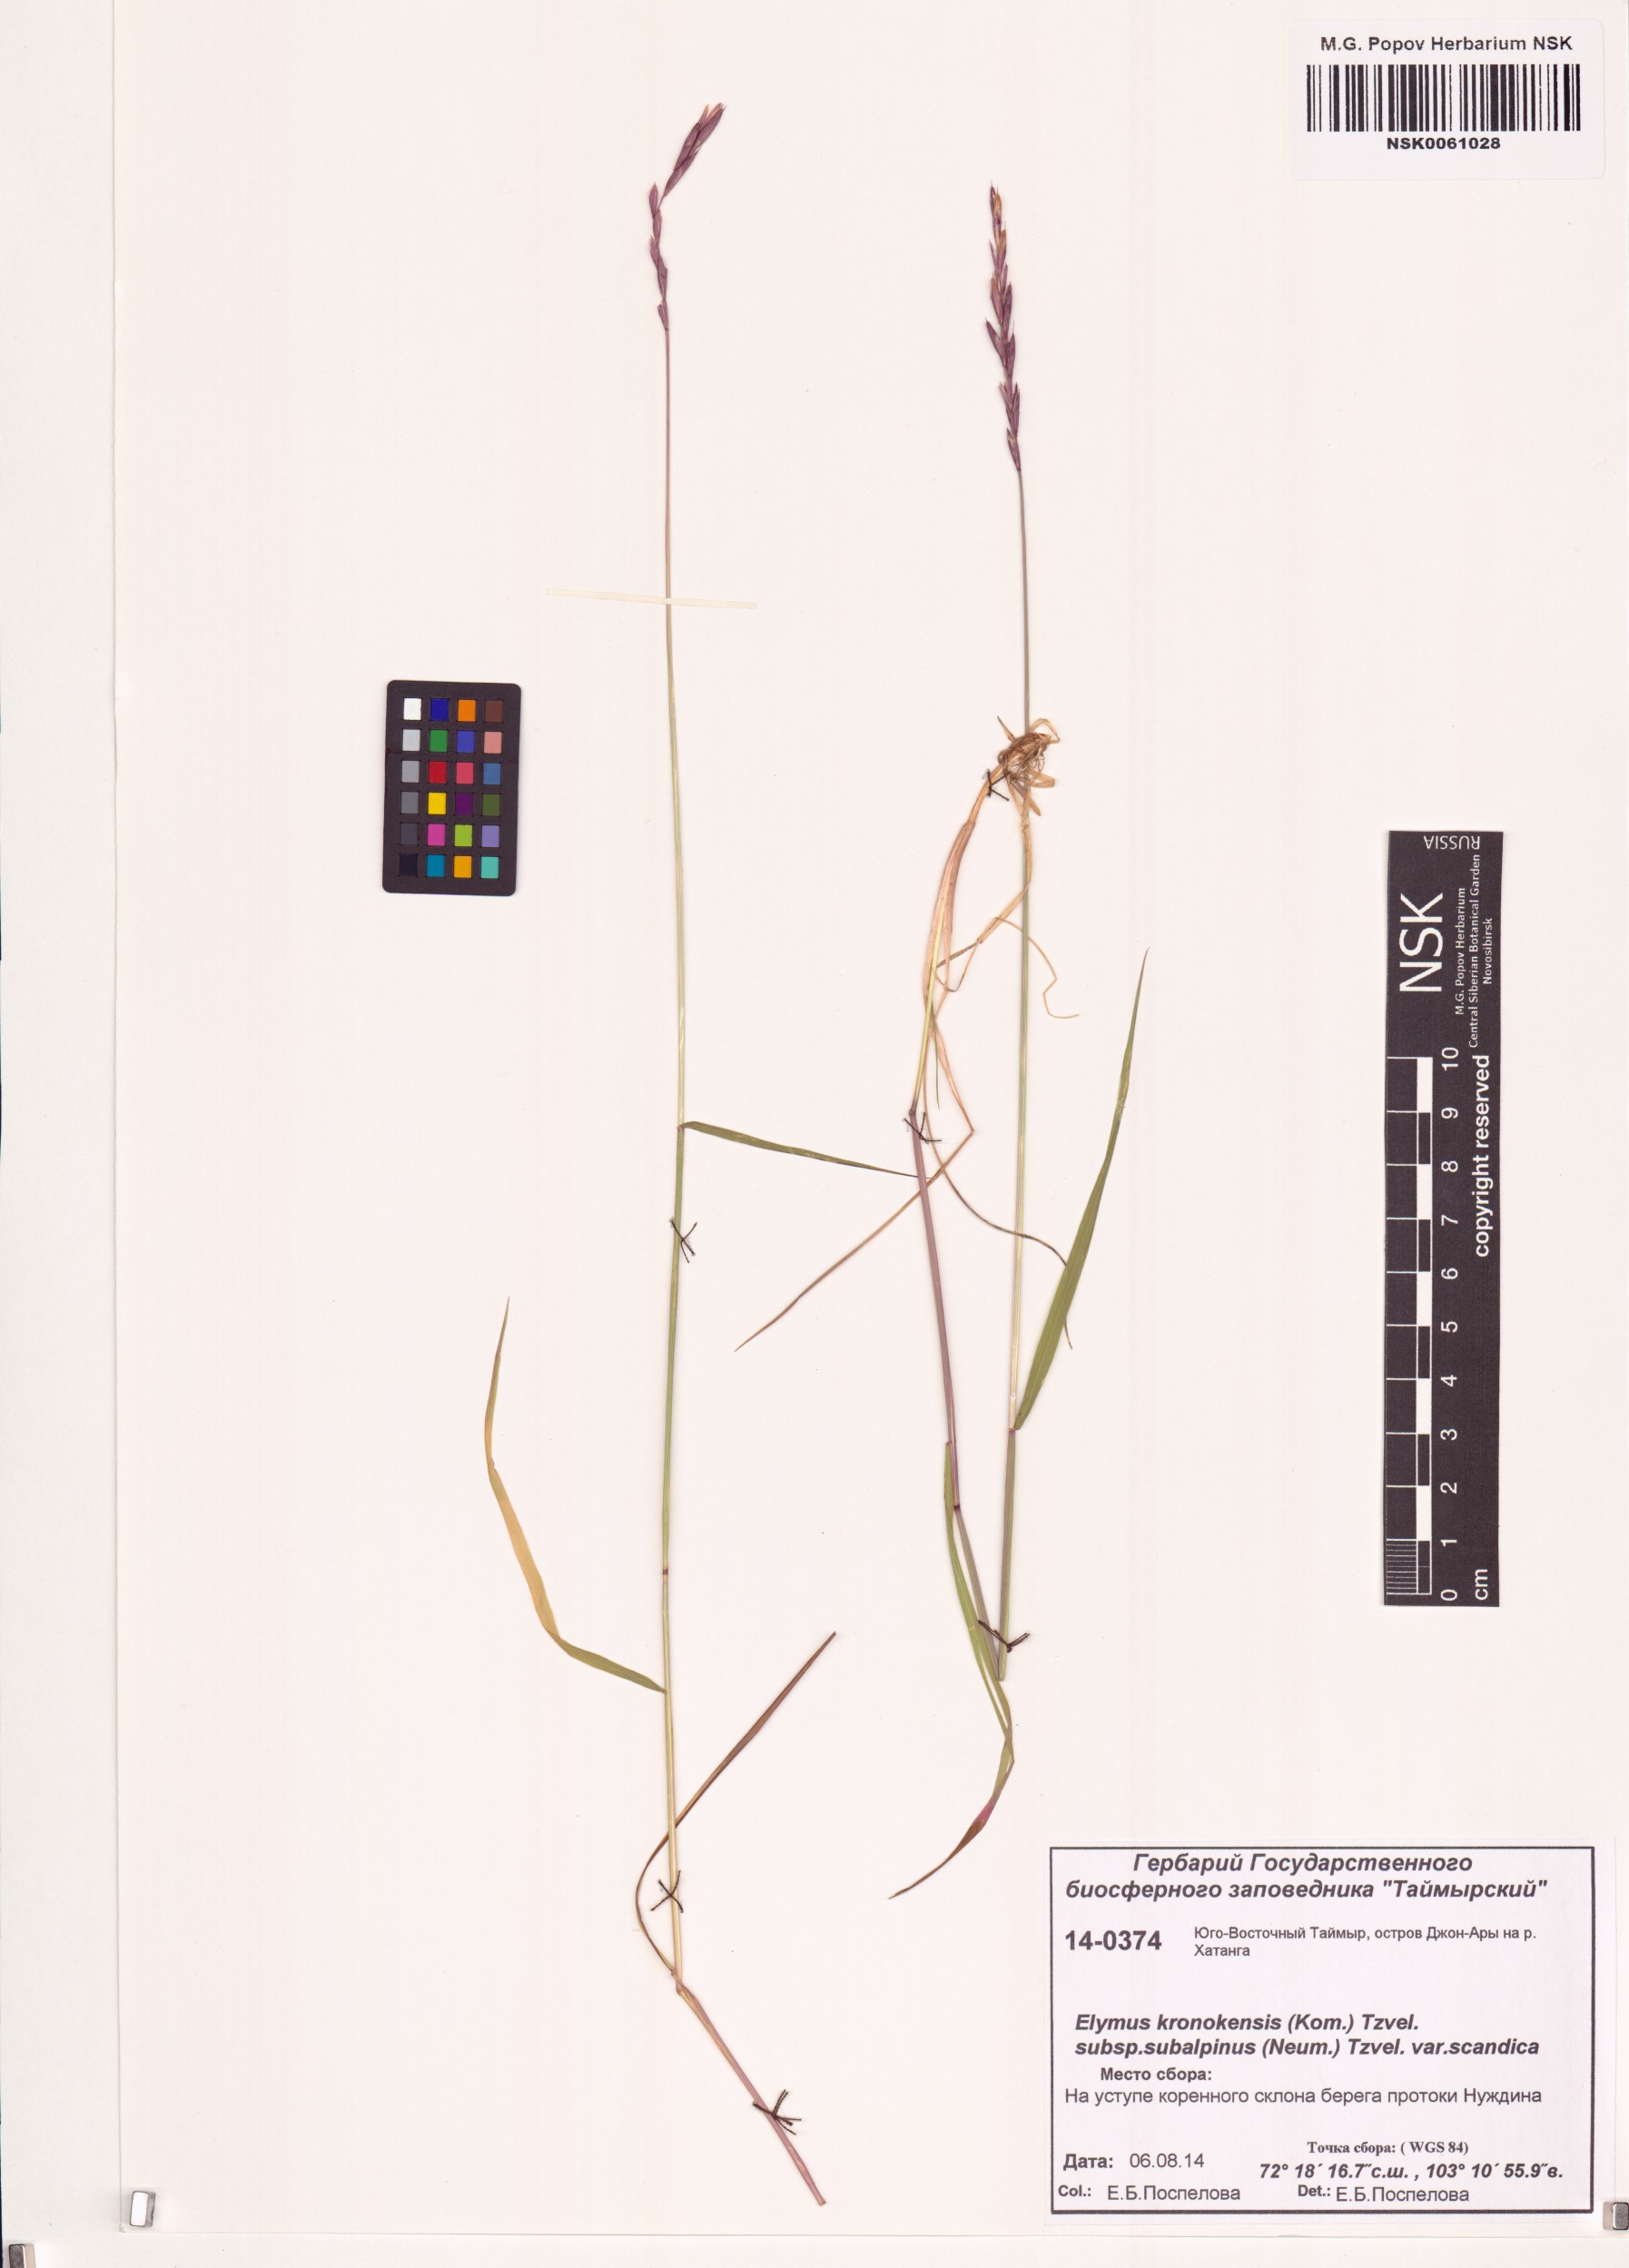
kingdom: Plantae
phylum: Tracheophyta
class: Liliopsida
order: Poales
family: Poaceae
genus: Elymus
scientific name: Elymus macrourus
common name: Northern wheatgrass
